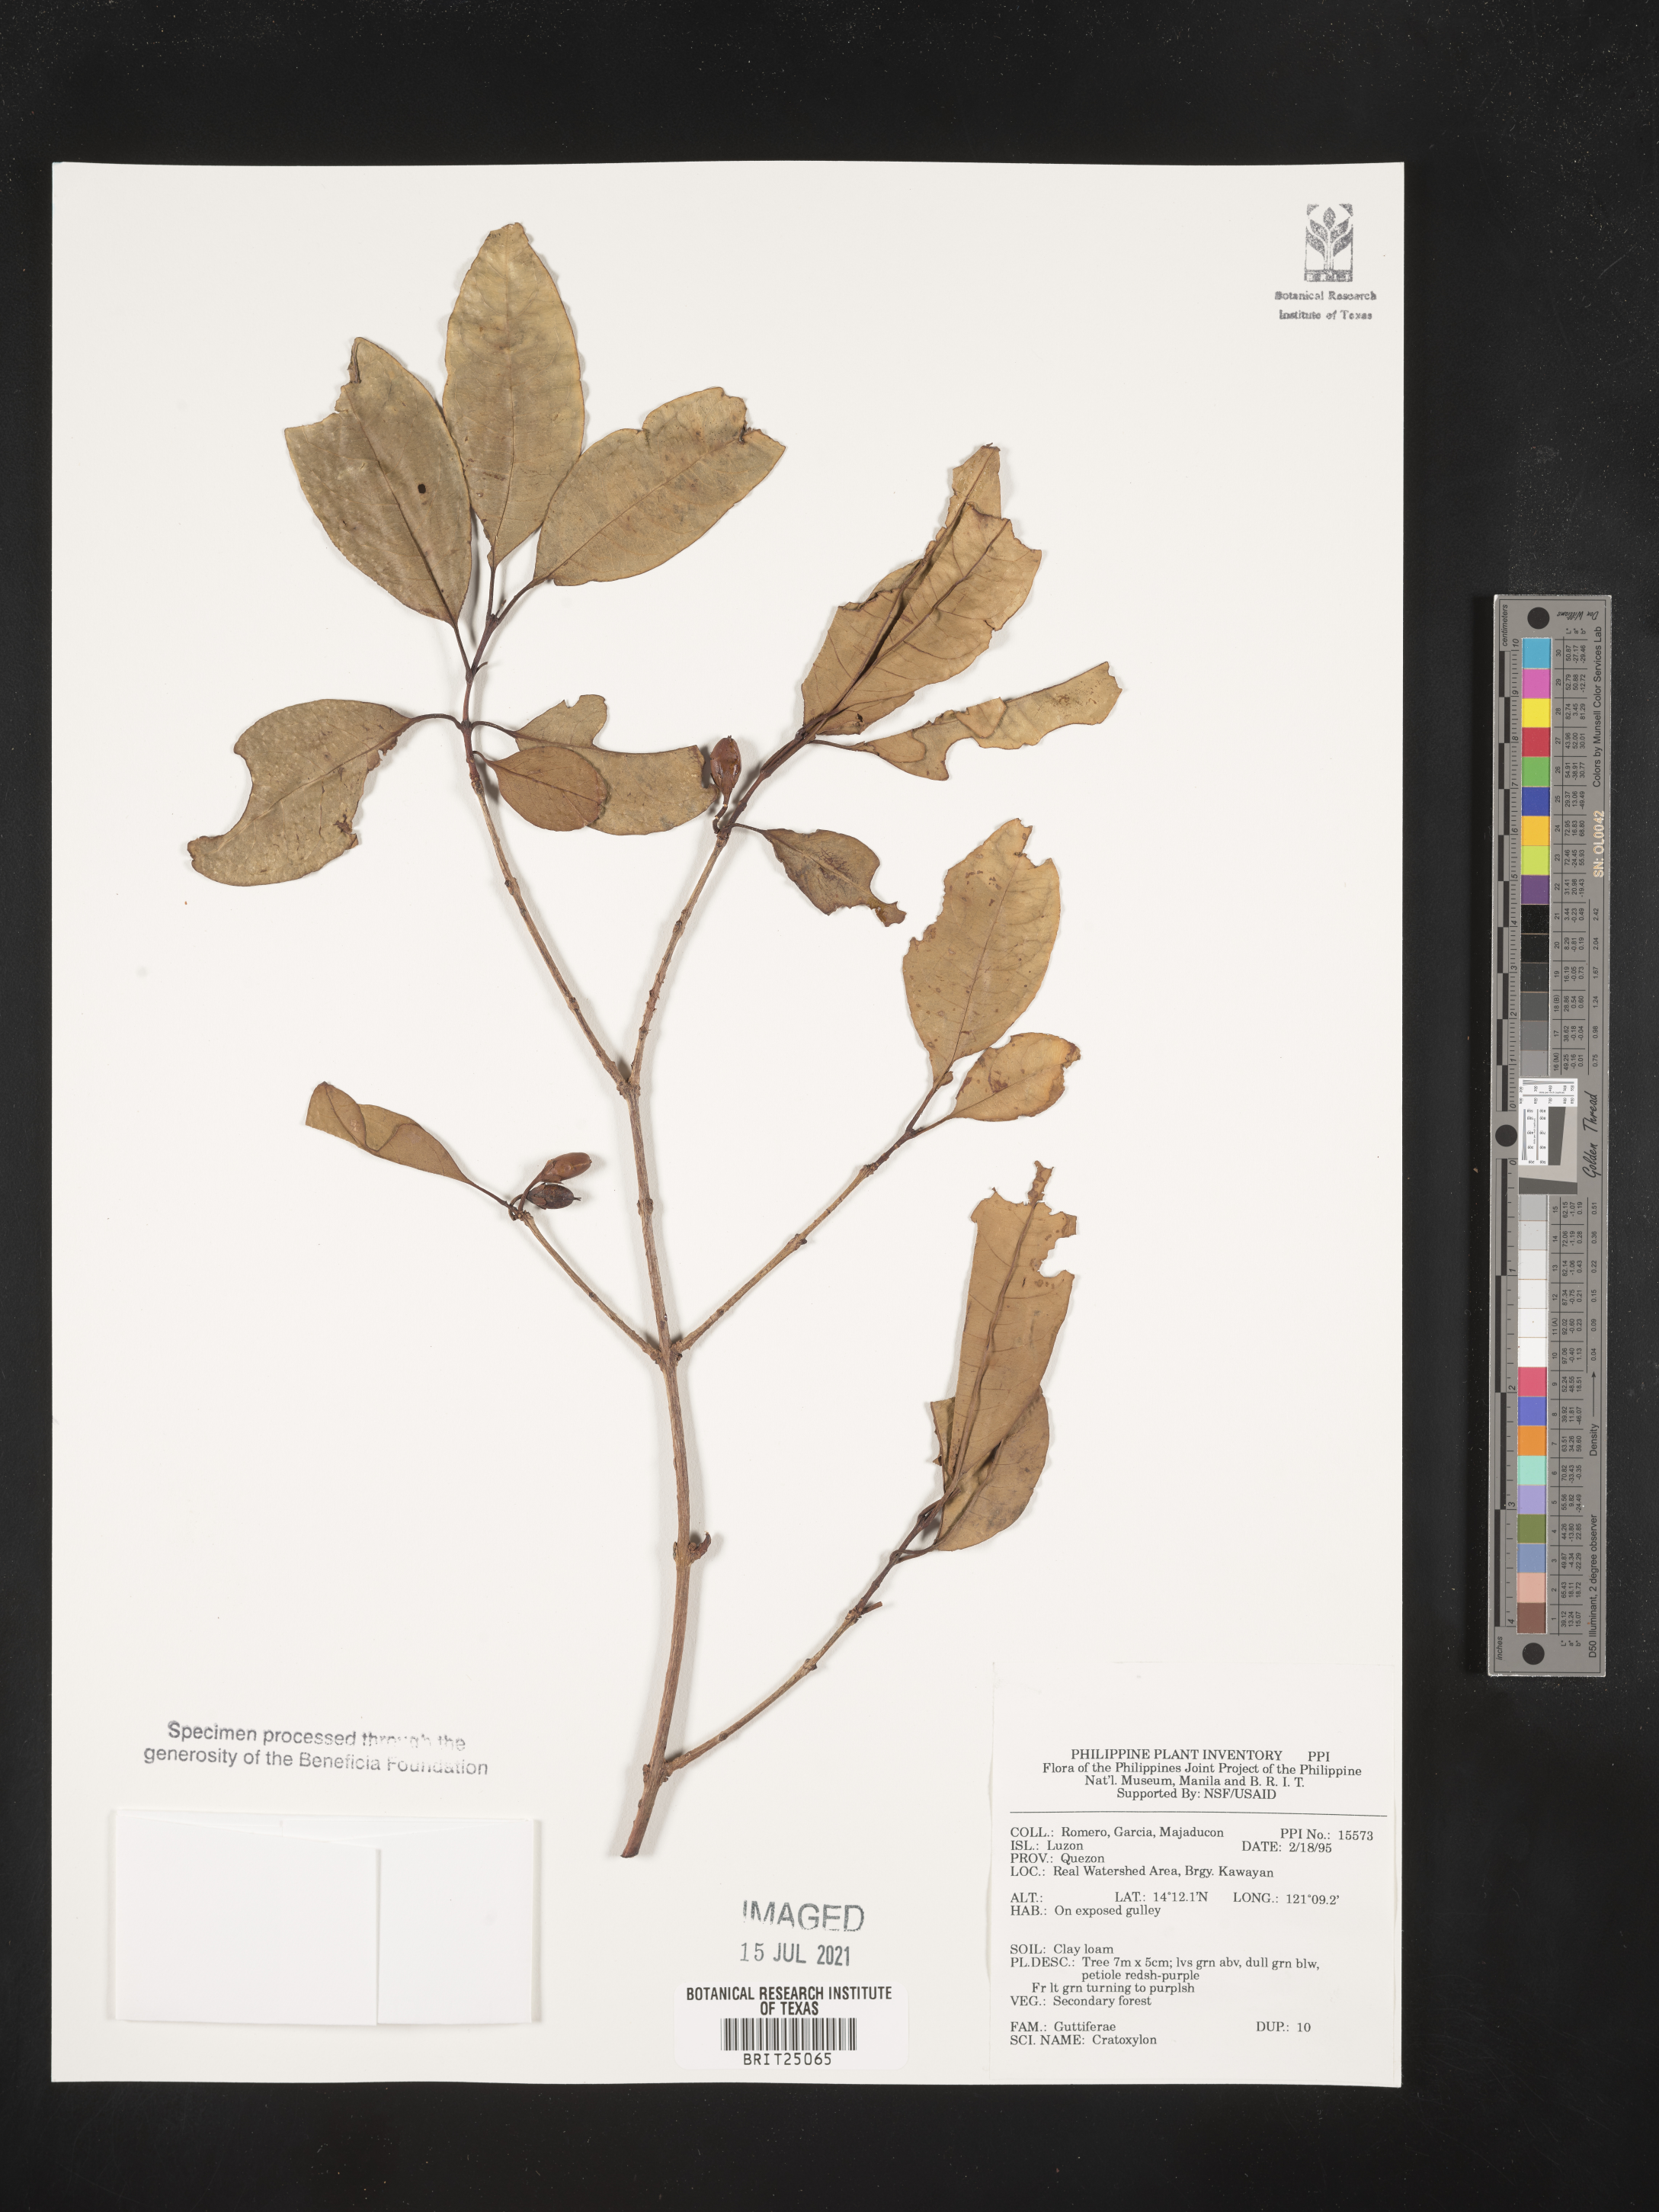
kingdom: Plantae
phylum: Tracheophyta
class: Magnoliopsida
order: Malpighiales
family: Hypericaceae
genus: Cratoxylum
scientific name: Cratoxylum
